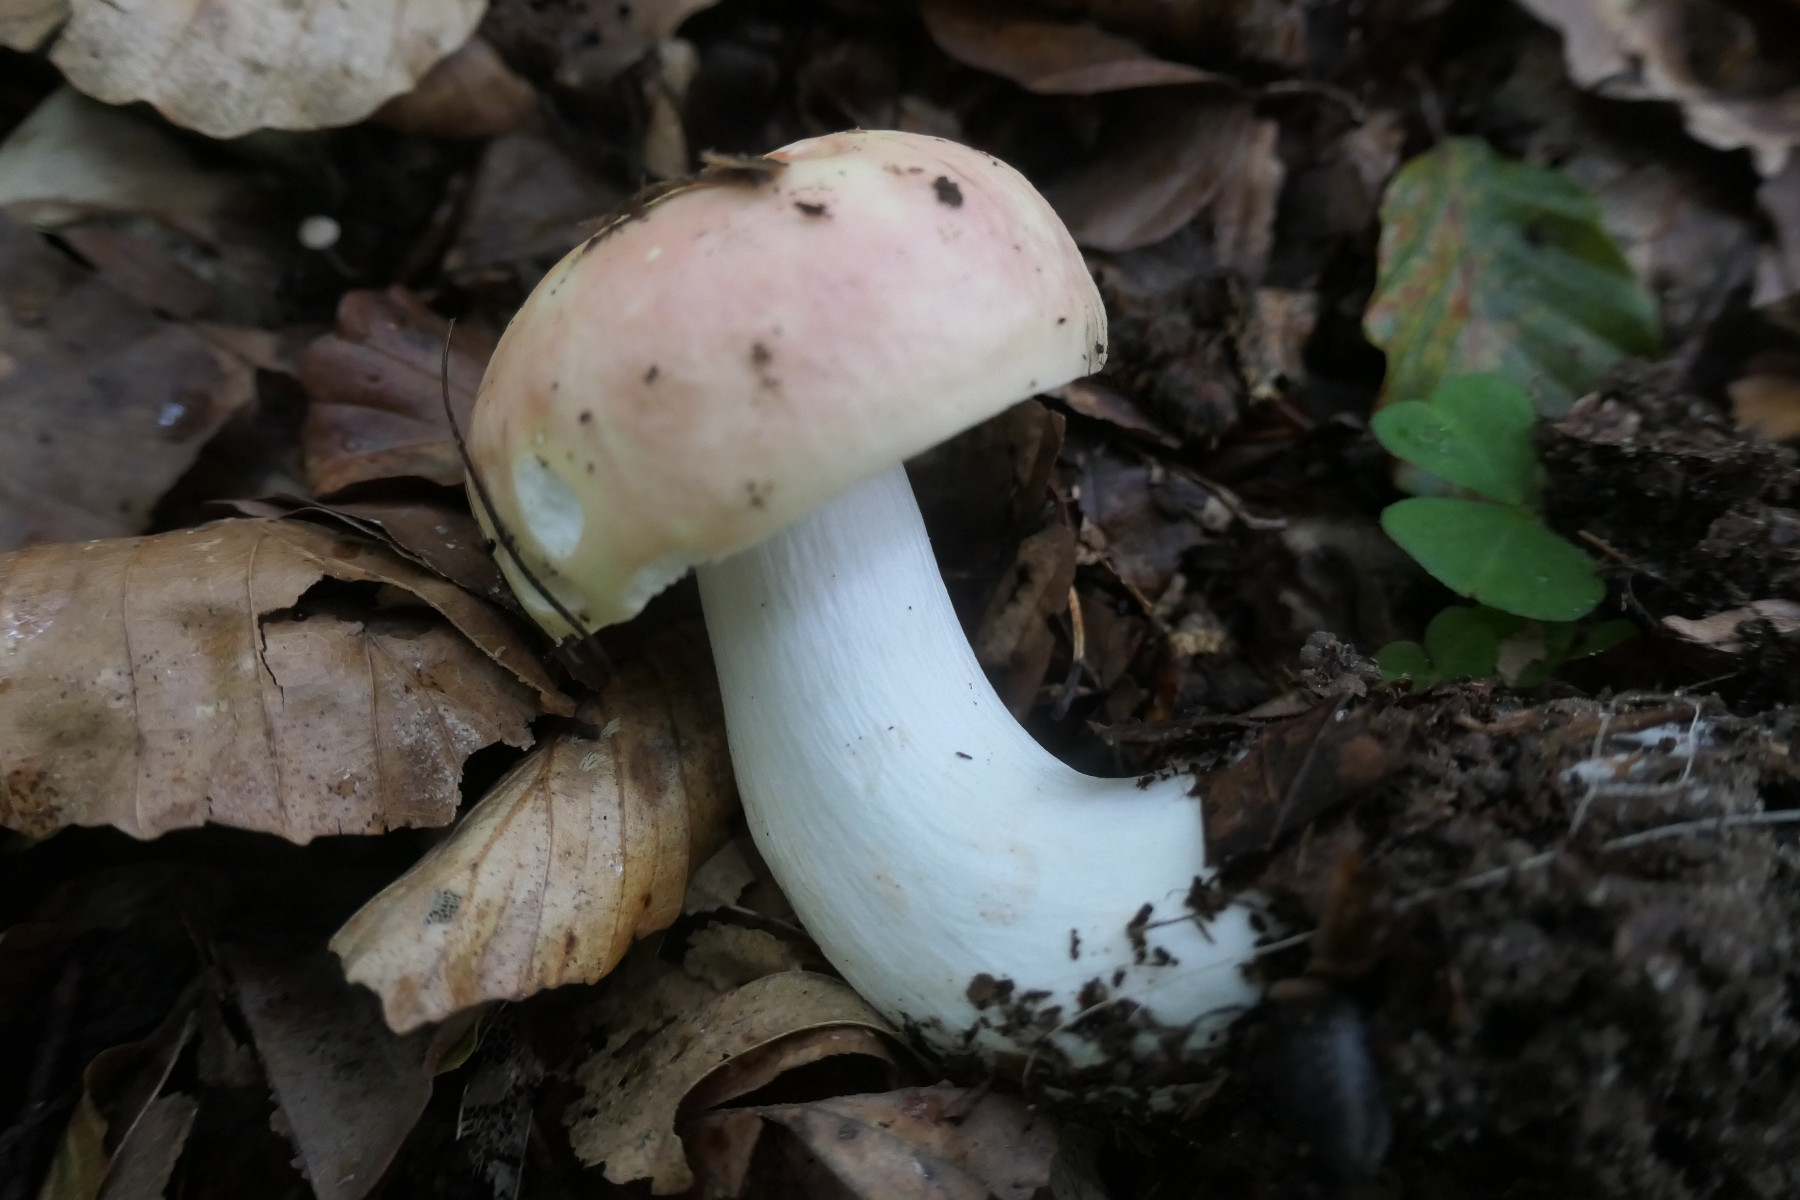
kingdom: Fungi
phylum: Basidiomycota
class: Agaricomycetes
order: Russulales
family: Russulaceae
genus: Russula
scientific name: Russula faginea
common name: bøge-skørhat
